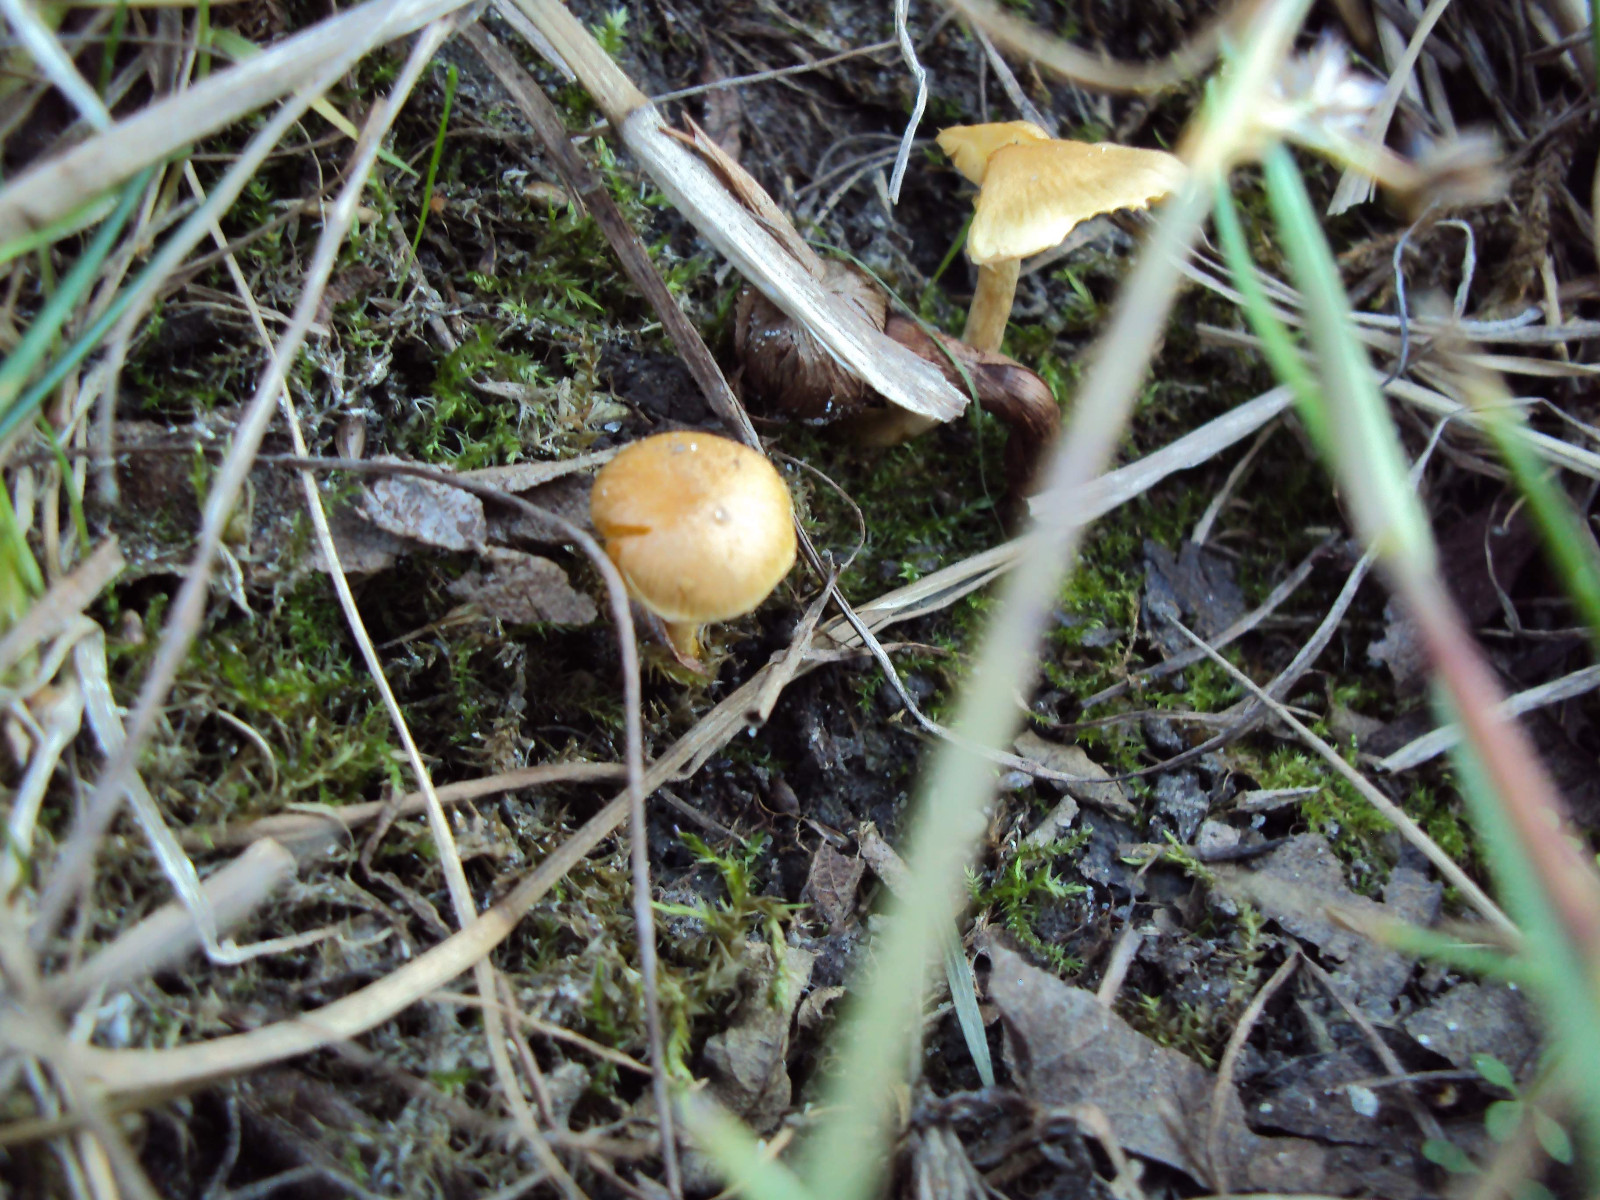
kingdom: Fungi
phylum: Basidiomycota
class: Agaricomycetes
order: Agaricales
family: Strophariaceae
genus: Pholiota
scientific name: Pholiota conissans
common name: pile-skælhat
